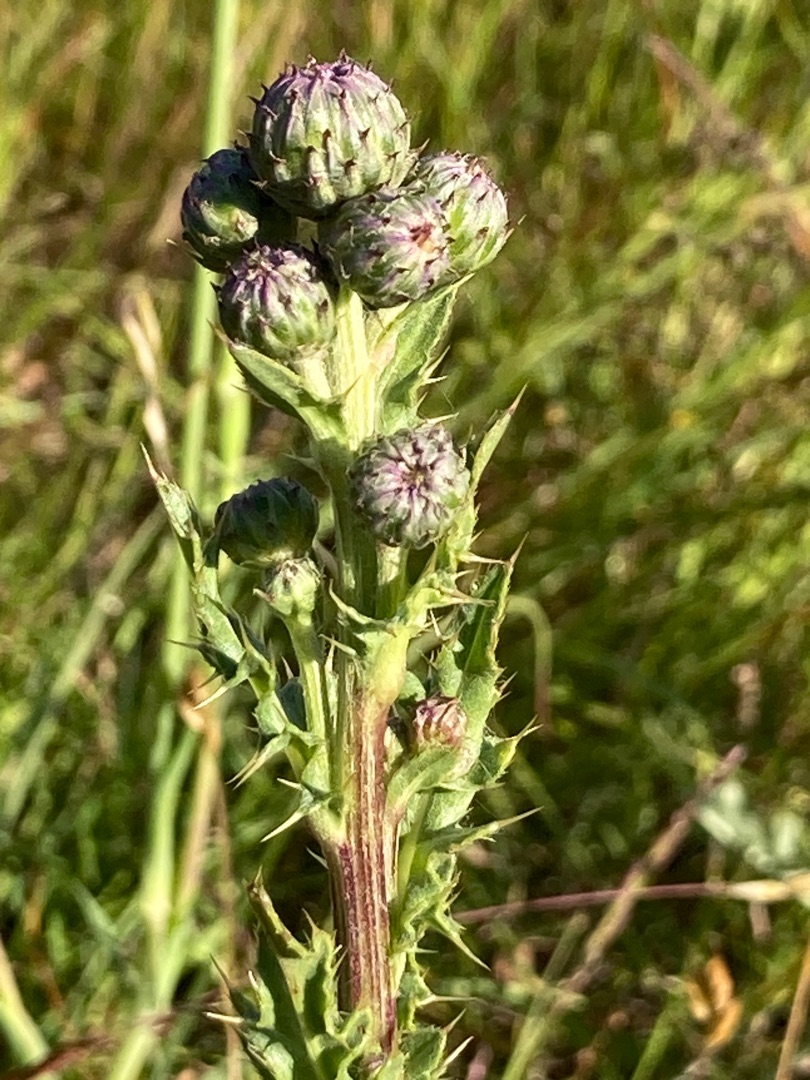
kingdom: Plantae
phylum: Tracheophyta
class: Magnoliopsida
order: Asterales
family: Asteraceae
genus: Cirsium
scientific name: Cirsium arvense
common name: Ager-tidsel
